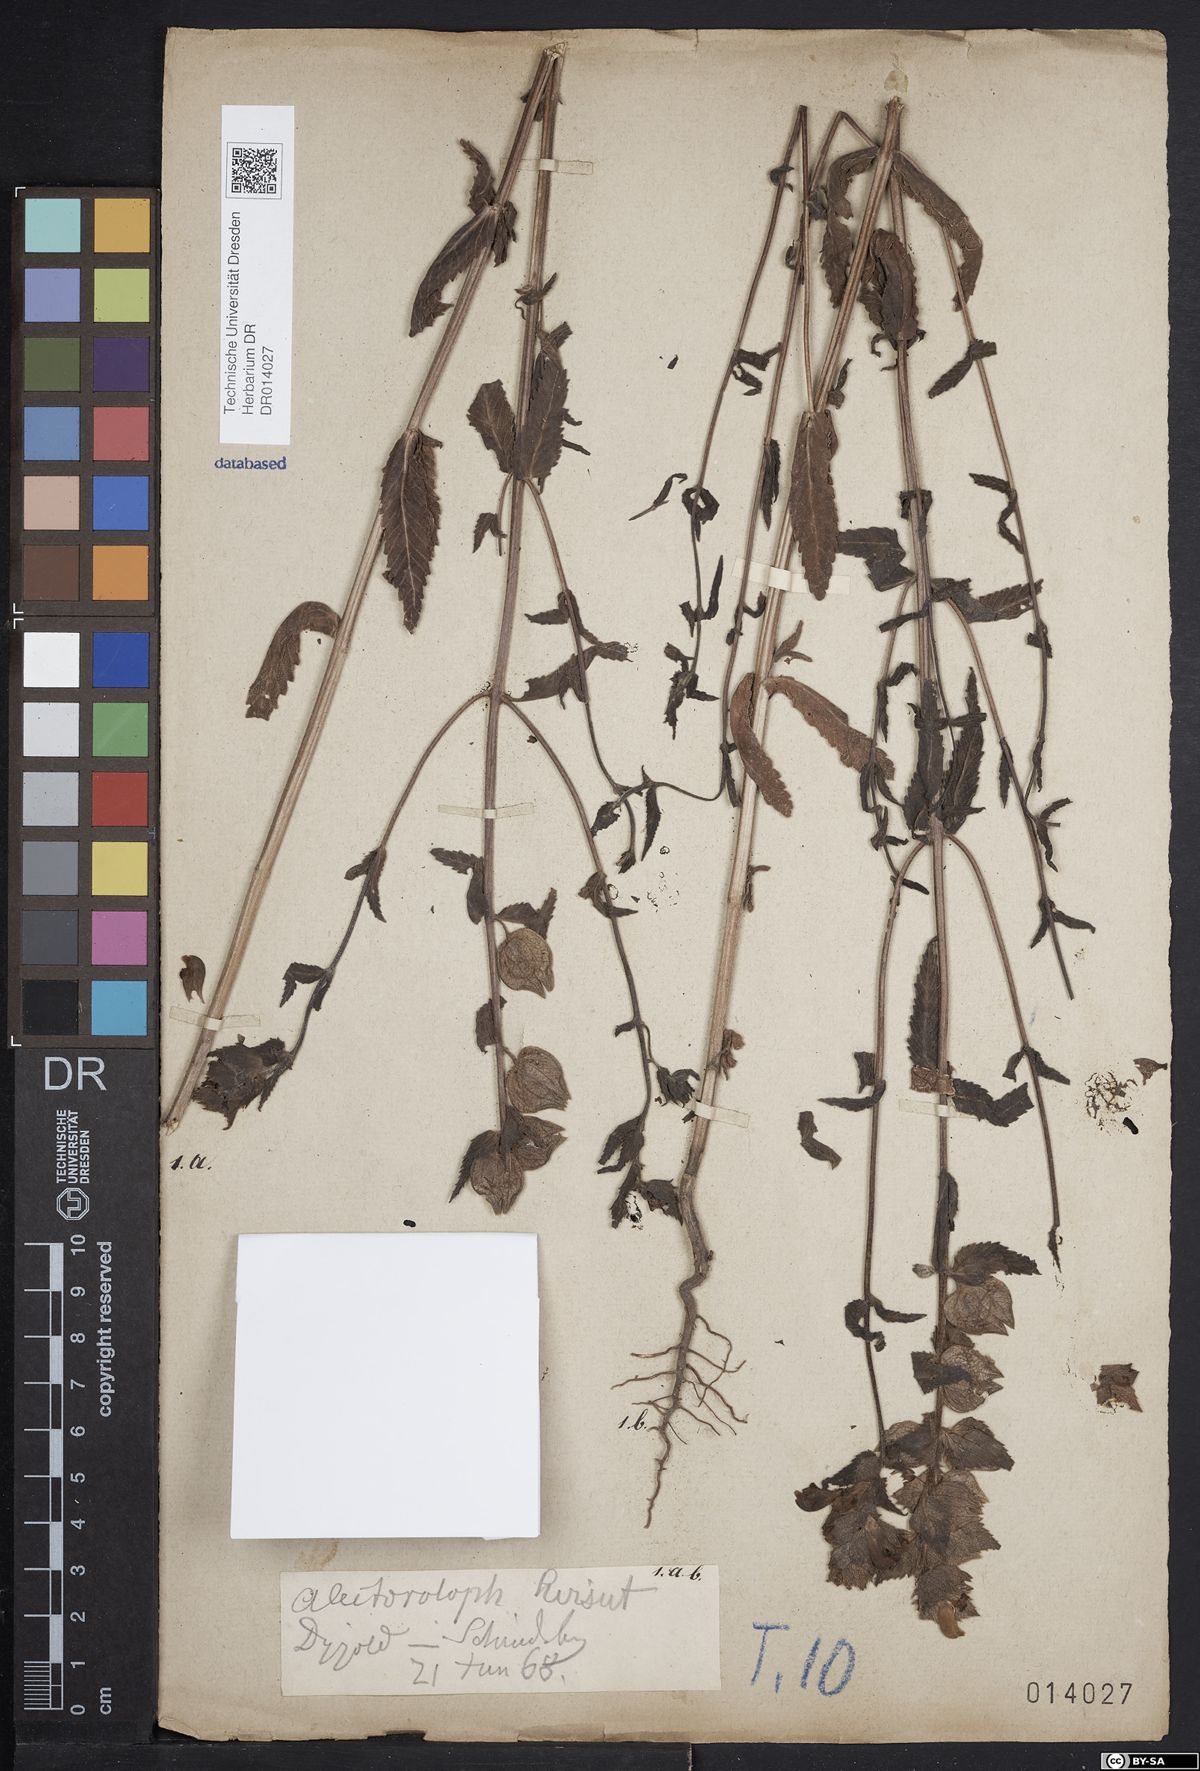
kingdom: Plantae
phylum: Tracheophyta
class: Magnoliopsida
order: Lamiales
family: Orobanchaceae
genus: Rhinanthus
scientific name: Rhinanthus alectorolophus
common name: Greater yellow-rattle
